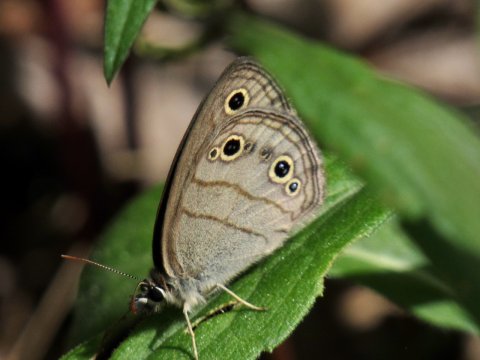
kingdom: Animalia
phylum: Arthropoda
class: Insecta
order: Lepidoptera
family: Nymphalidae
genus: Euptychia
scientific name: Euptychia cymela
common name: Little Wood Satyr
